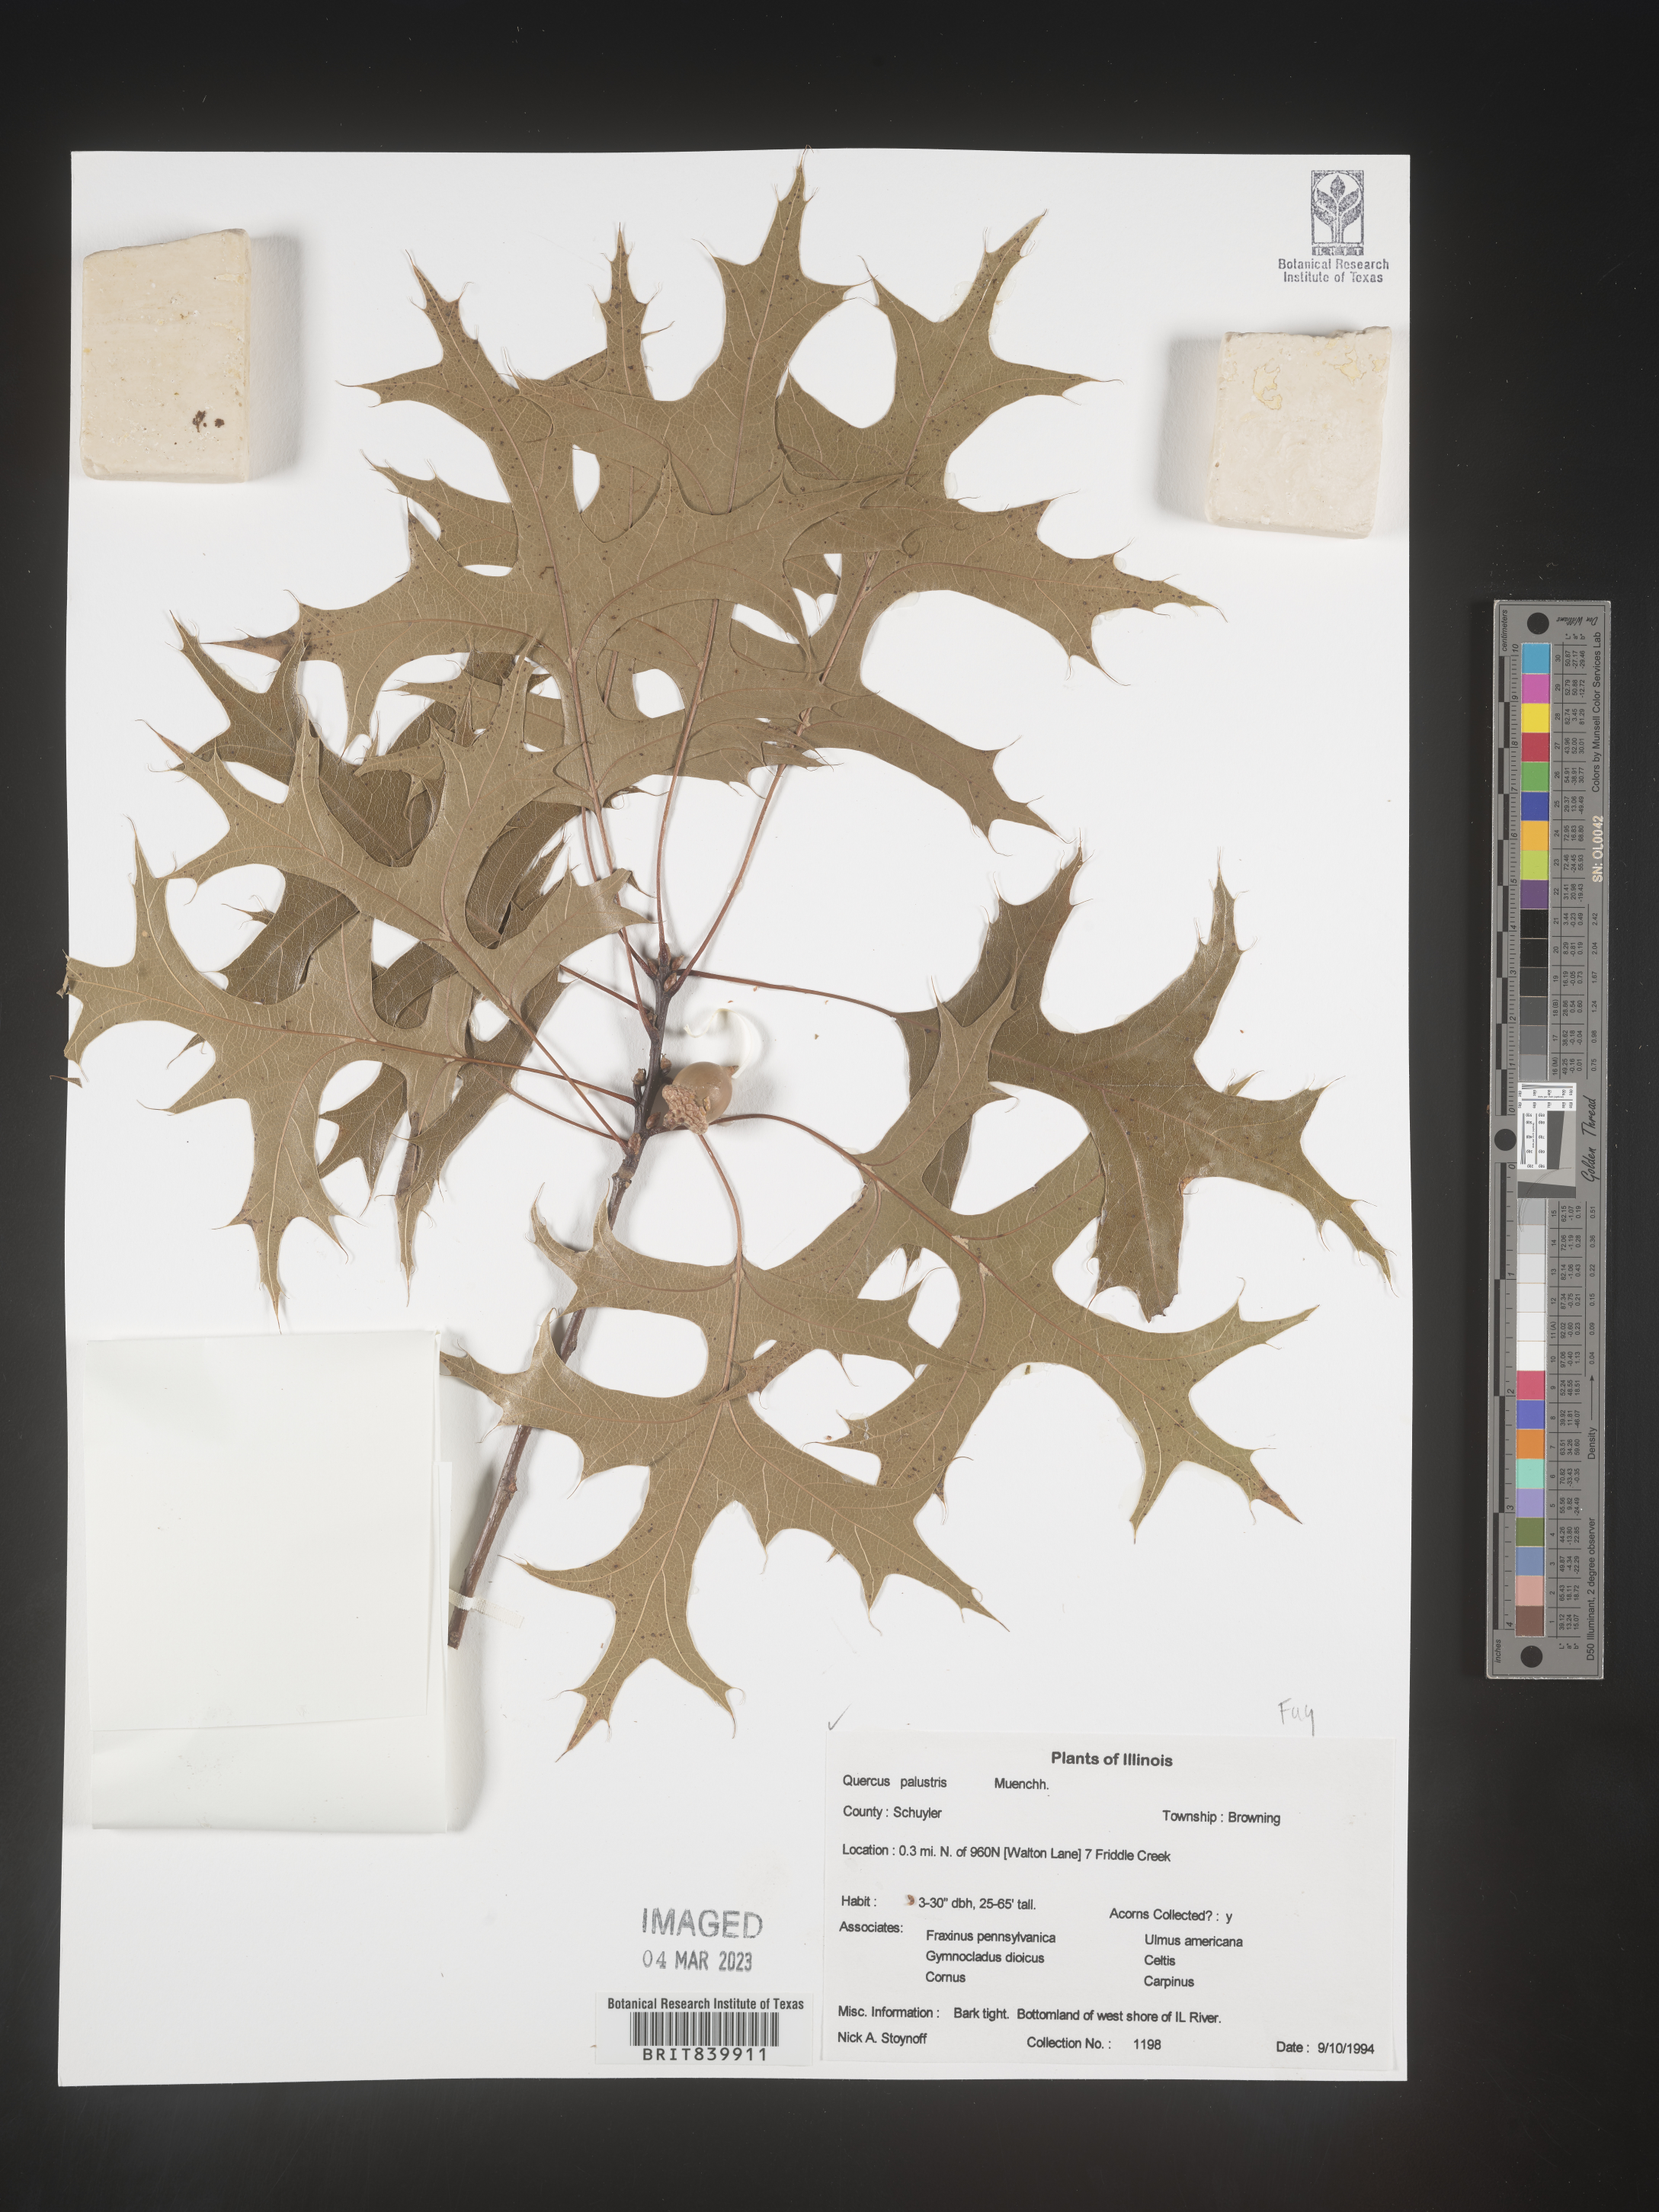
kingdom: Plantae
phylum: Tracheophyta
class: Magnoliopsida
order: Fagales
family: Fagaceae
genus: Quercus
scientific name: Quercus palustris
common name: Pin oak
